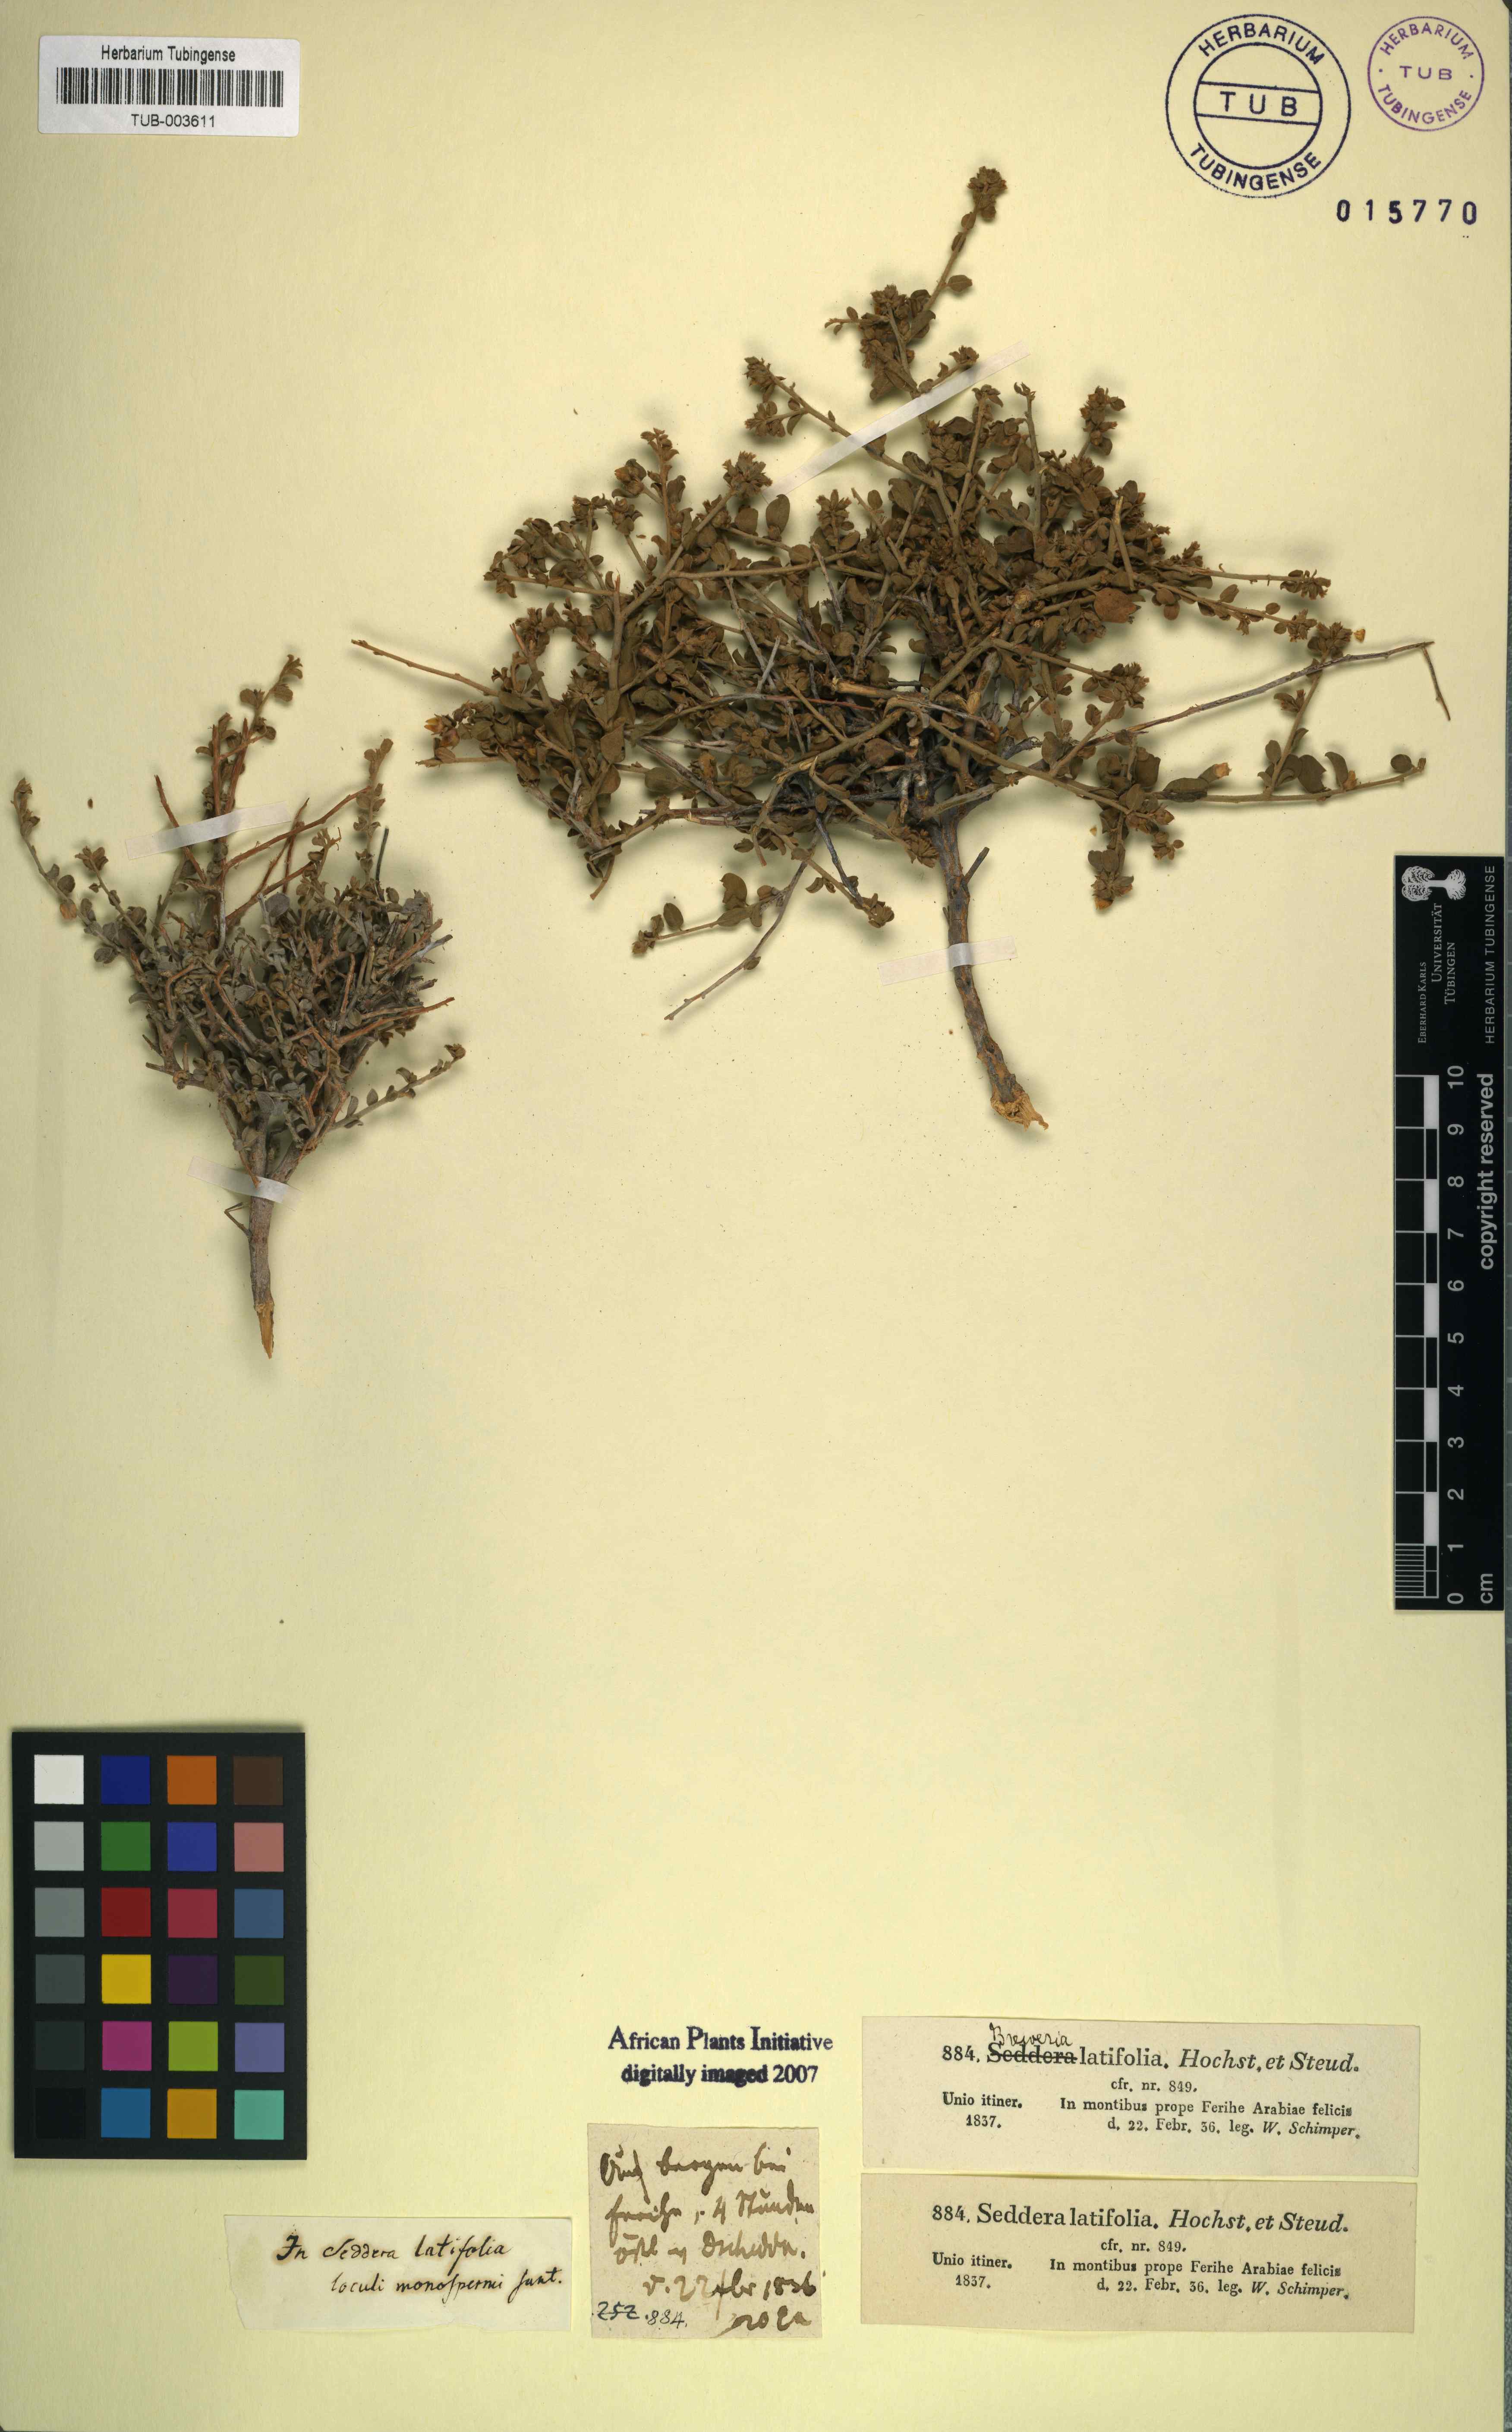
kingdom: Plantae
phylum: Tracheophyta
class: Magnoliopsida
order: Solanales
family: Convolvulaceae
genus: Seddera
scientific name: Seddera latifolia
